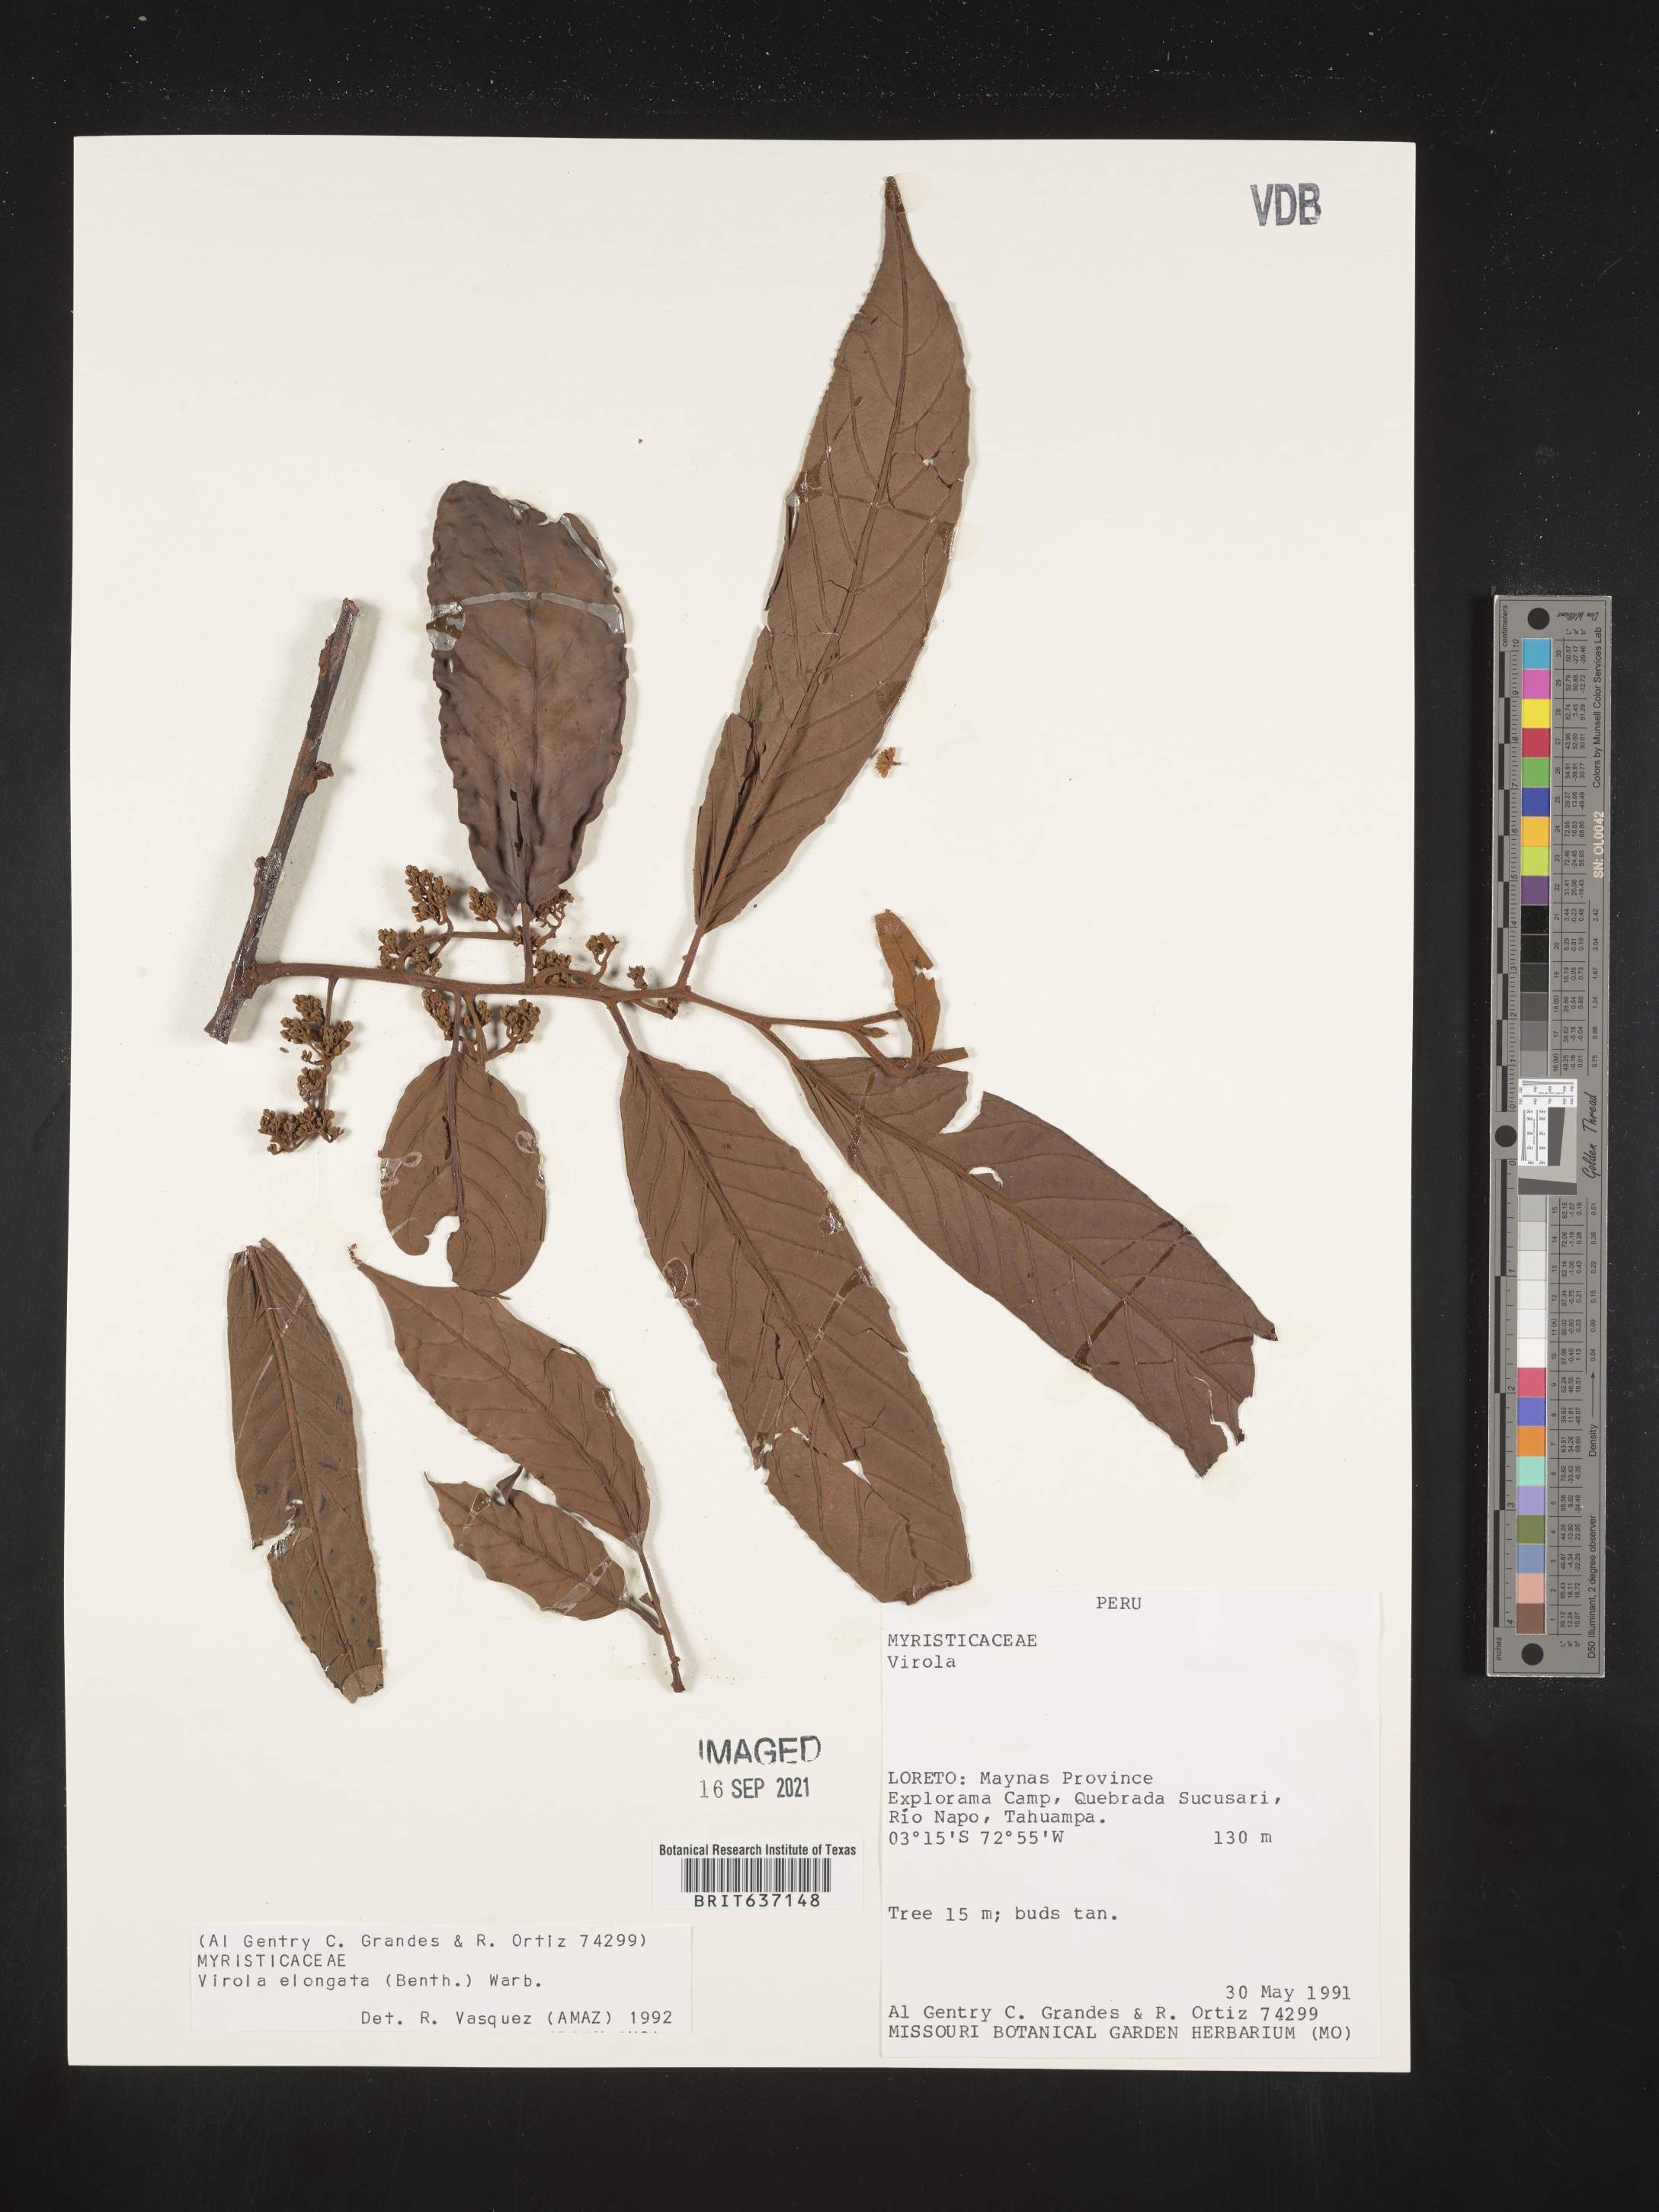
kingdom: Plantae
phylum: Tracheophyta
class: Magnoliopsida
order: Magnoliales
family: Myristicaceae
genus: Virola
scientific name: Virola
